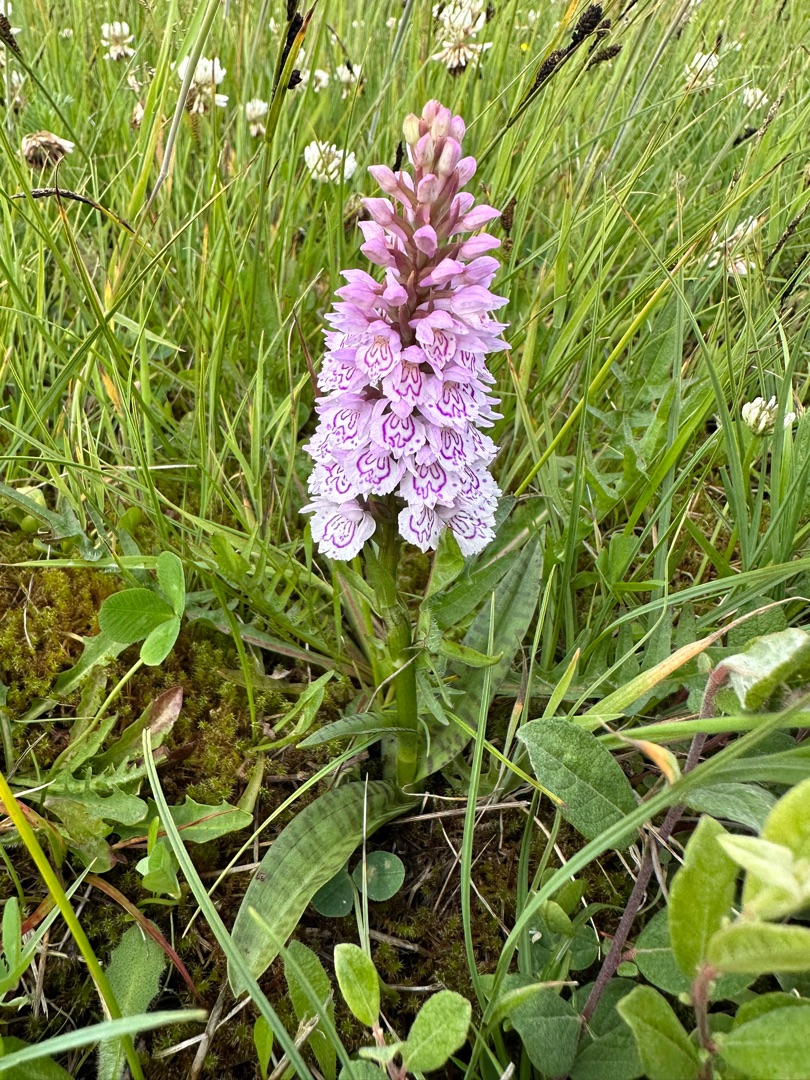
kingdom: Plantae
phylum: Tracheophyta
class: Liliopsida
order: Asparagales
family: Orchidaceae
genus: Dactylorhiza
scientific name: Dactylorhiza maculata
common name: Plettet gøgeurt
